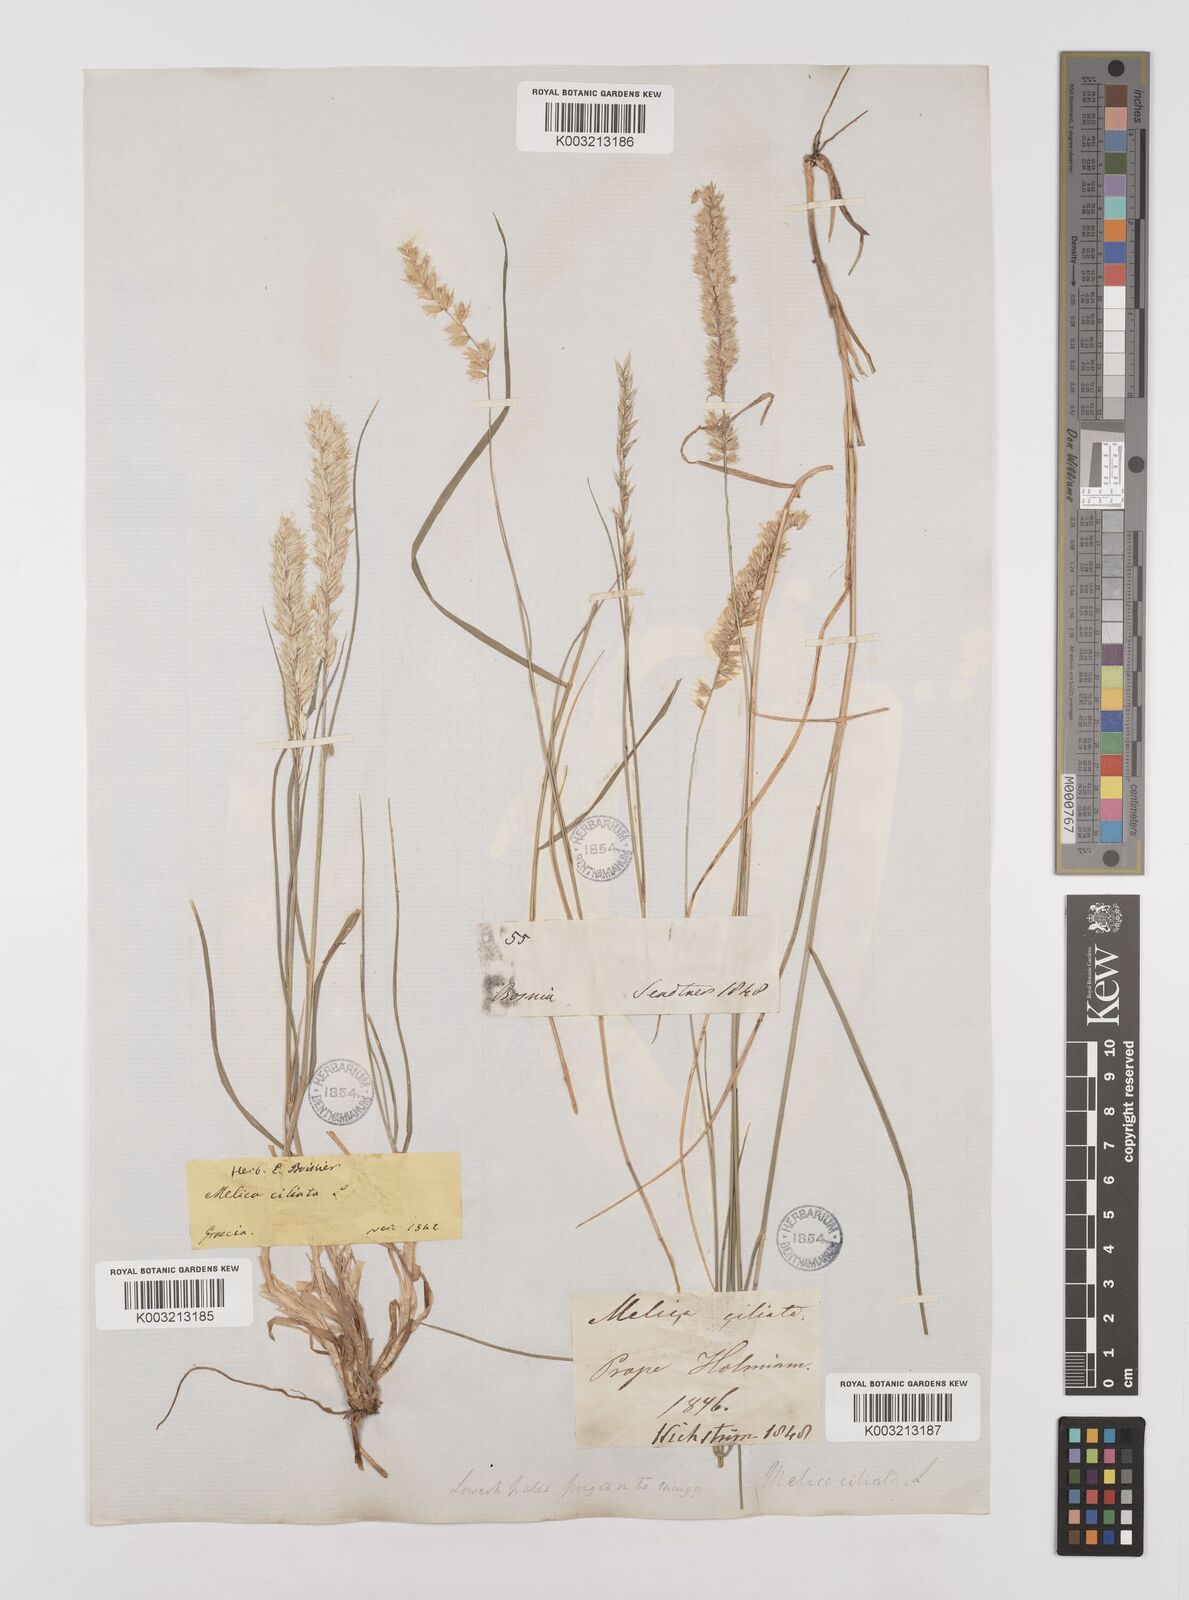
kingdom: Plantae
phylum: Tracheophyta
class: Liliopsida
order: Poales
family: Poaceae
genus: Melica
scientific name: Melica ciliata
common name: Hairy melicgrass
